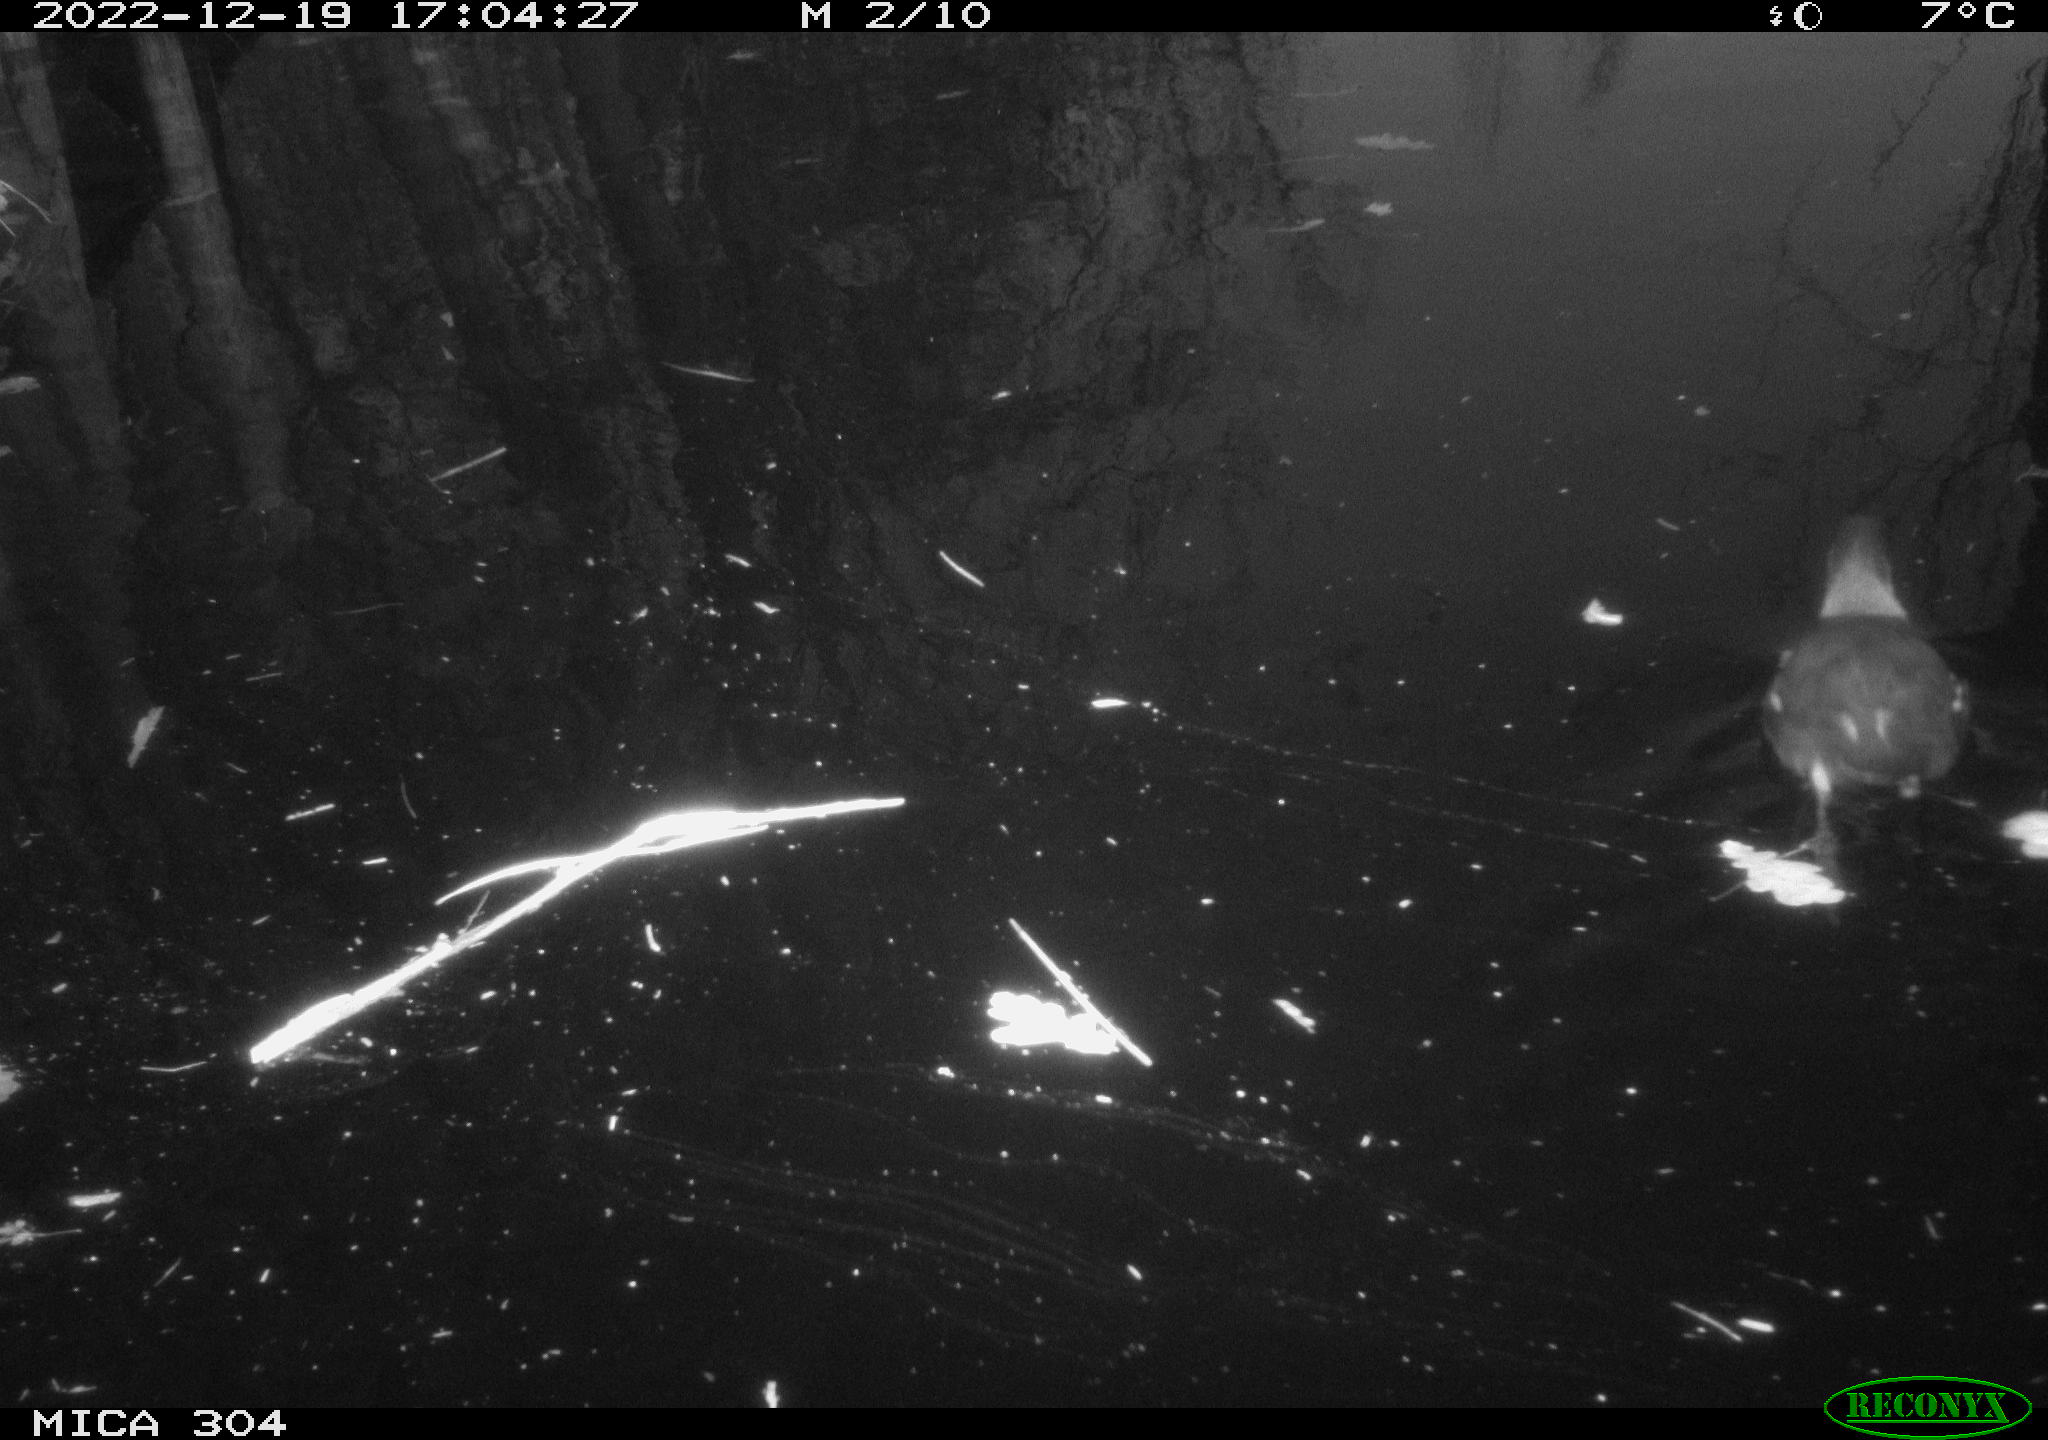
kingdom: Animalia
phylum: Chordata
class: Aves
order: Gruiformes
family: Rallidae
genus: Gallinula
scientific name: Gallinula chloropus
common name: Common moorhen
